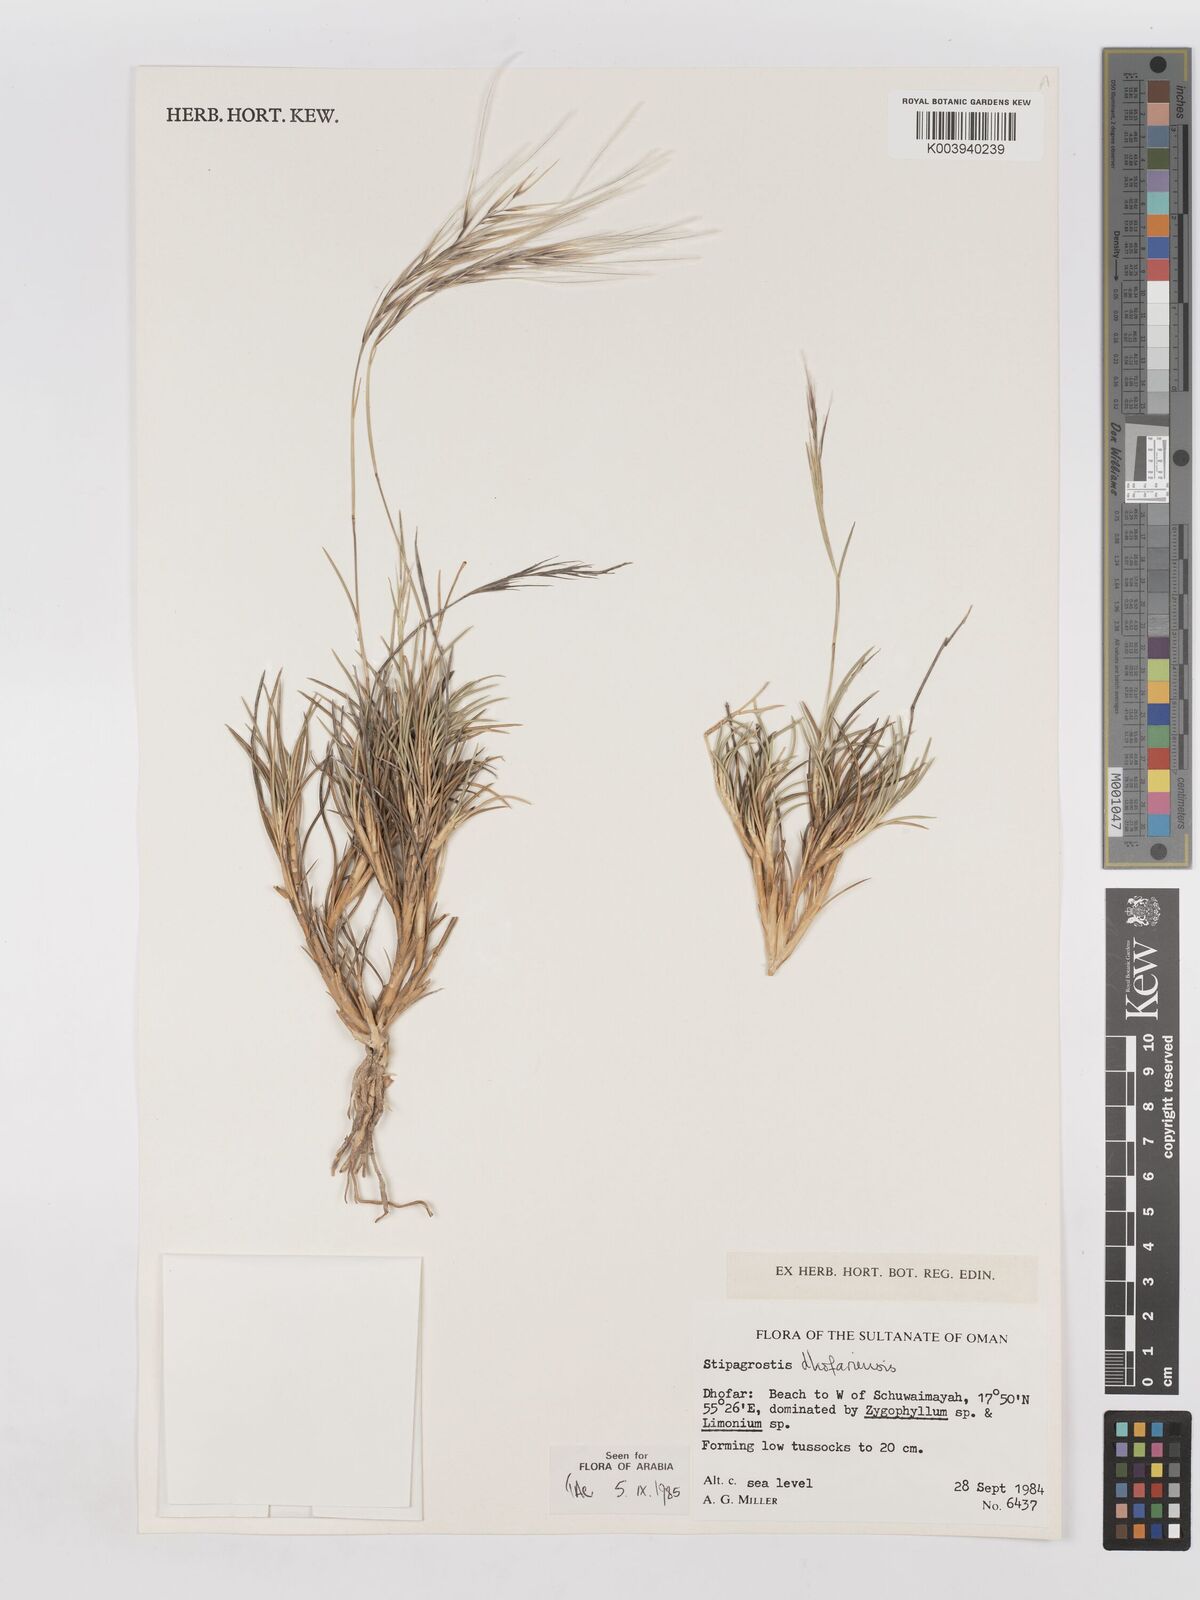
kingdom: Plantae
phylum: Tracheophyta
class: Liliopsida
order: Poales
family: Poaceae
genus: Stipagrostis
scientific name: Stipagrostis dhofariensis
